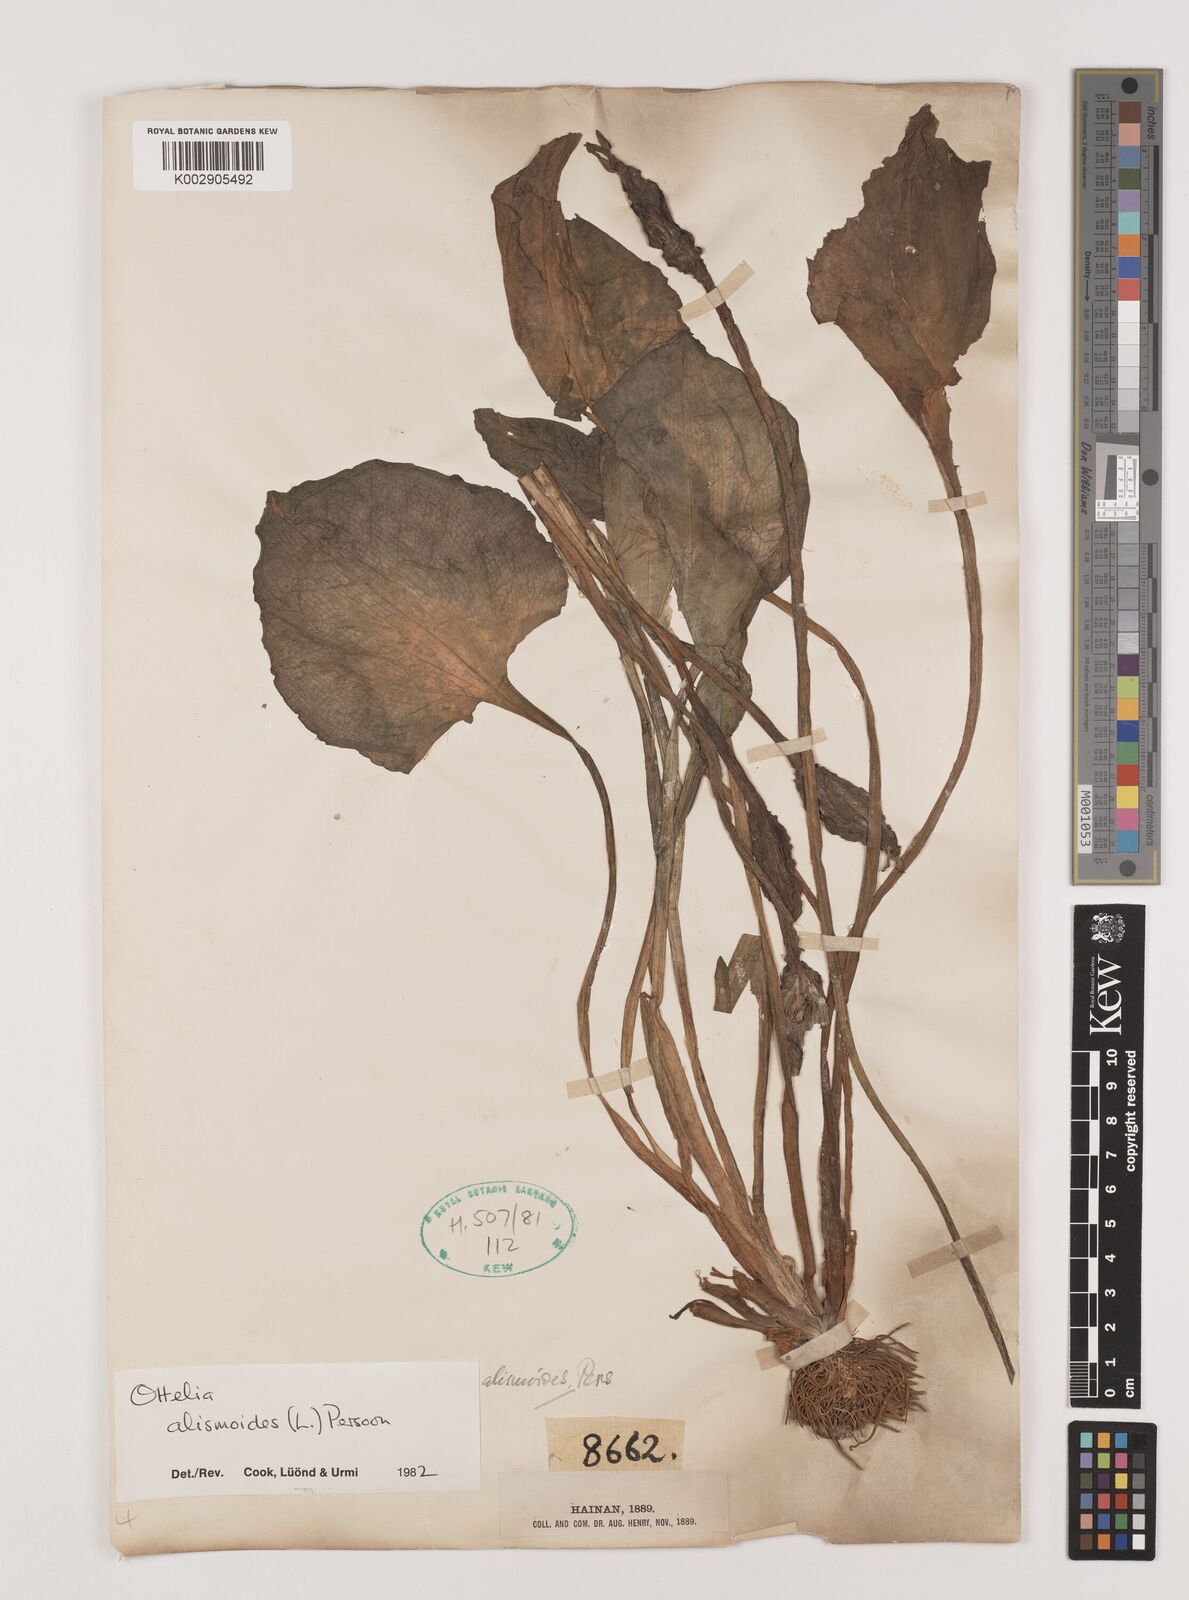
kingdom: Plantae
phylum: Tracheophyta
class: Liliopsida
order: Alismatales
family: Hydrocharitaceae
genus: Ottelia
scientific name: Ottelia alismoides
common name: Duck-lettuce
